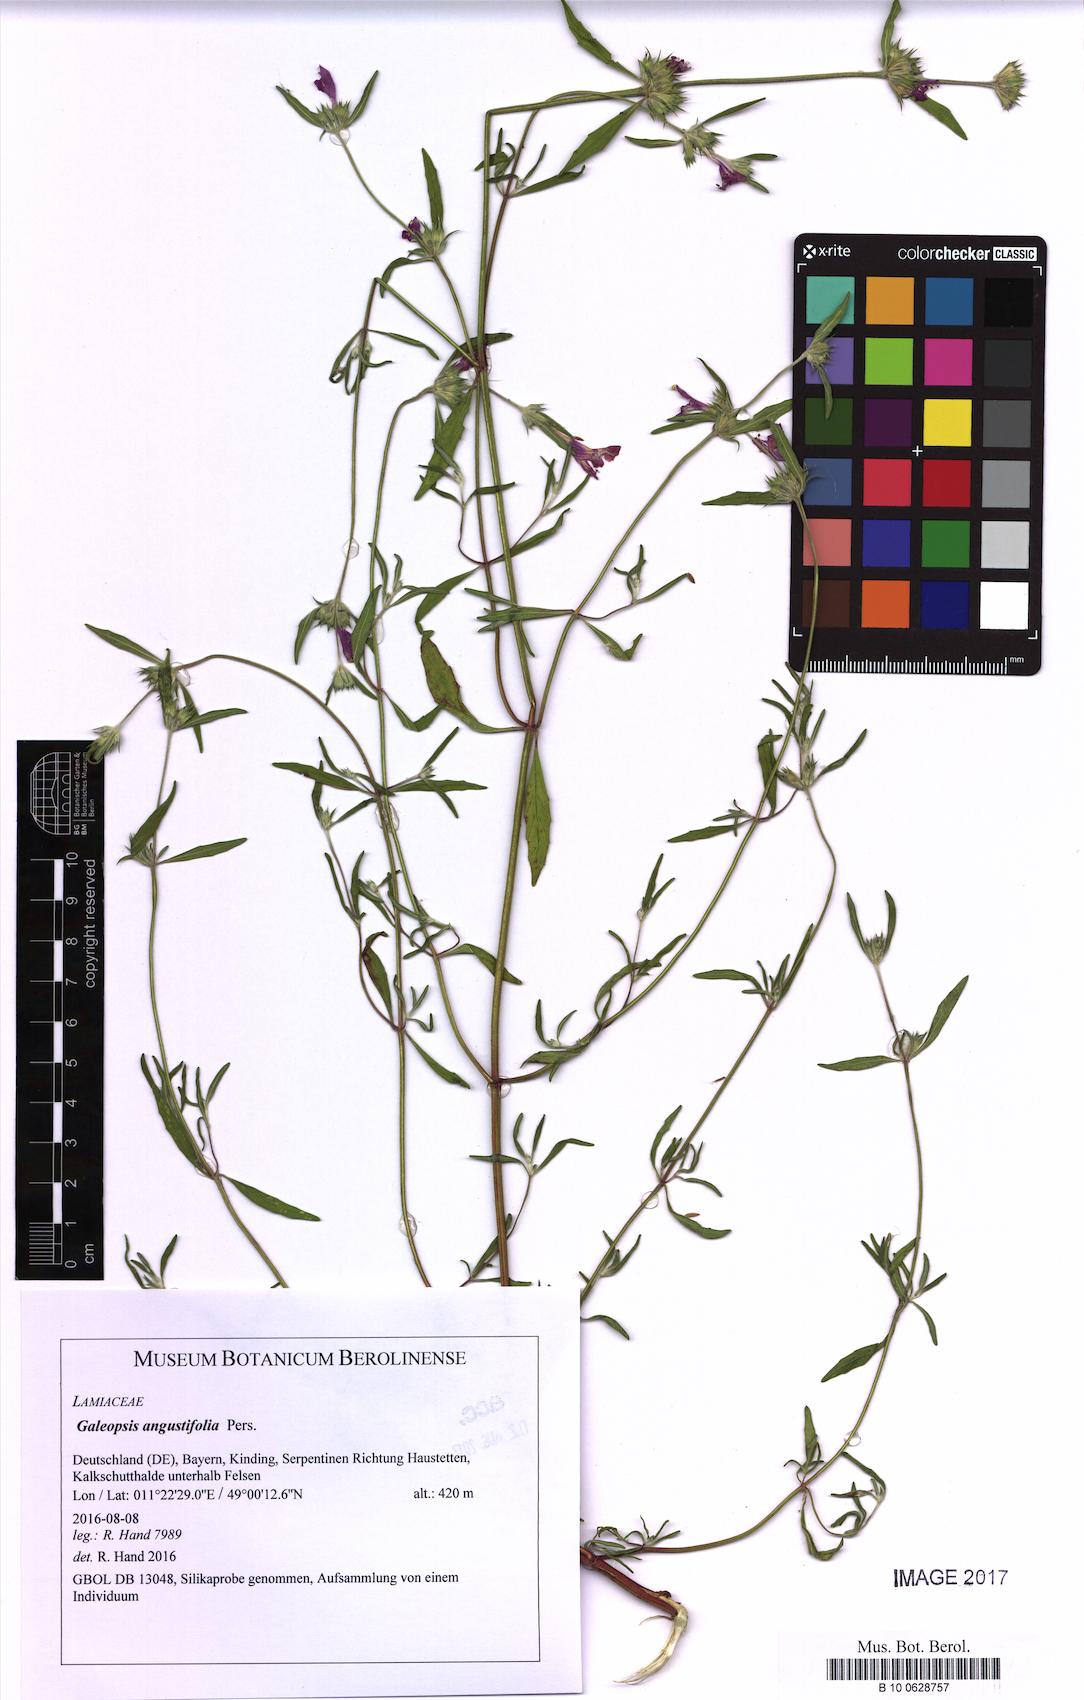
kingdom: Plantae
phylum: Tracheophyta
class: Magnoliopsida
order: Lamiales
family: Lamiaceae
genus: Galeopsis
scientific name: Galeopsis angustifolia
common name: Red hemp-nettle
